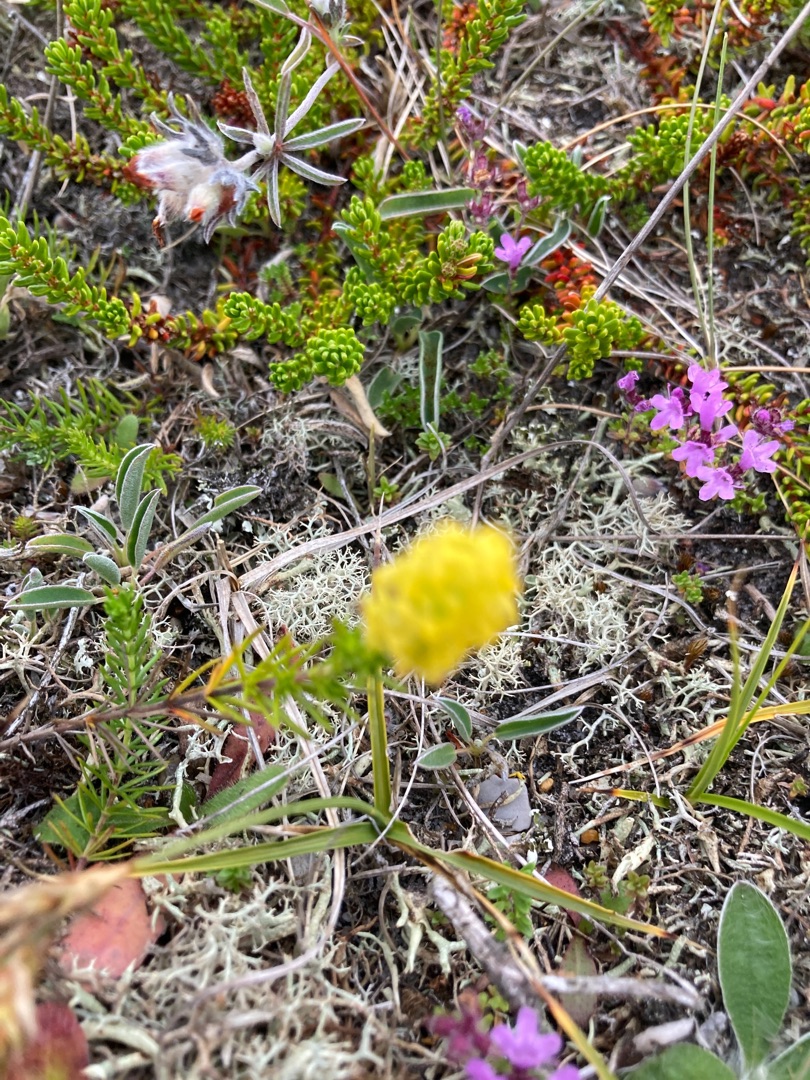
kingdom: Plantae
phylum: Tracheophyta
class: Magnoliopsida
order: Gentianales
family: Rubiaceae
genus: Galium
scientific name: Galium verum
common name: Gul snerre
